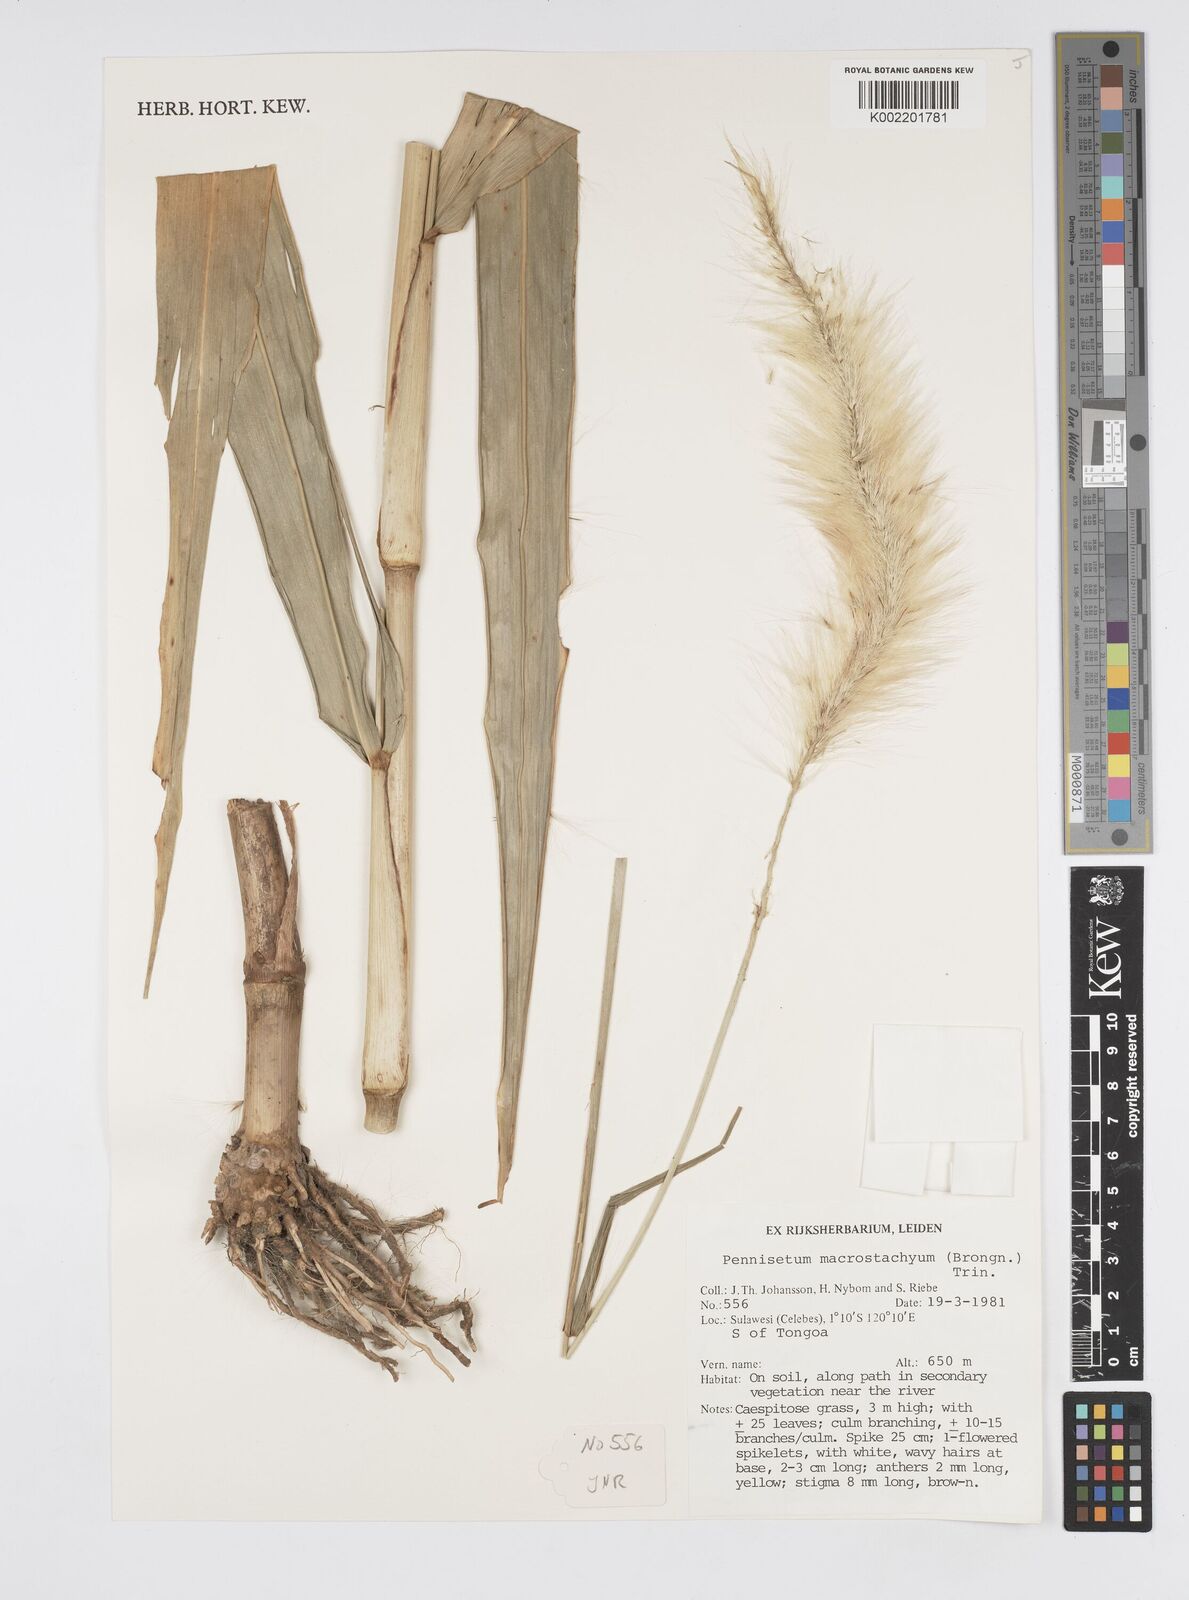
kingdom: Plantae
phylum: Tracheophyta
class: Liliopsida
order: Poales
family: Poaceae
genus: Cenchrus
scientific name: Cenchrus purpureus
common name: Elephant grass
